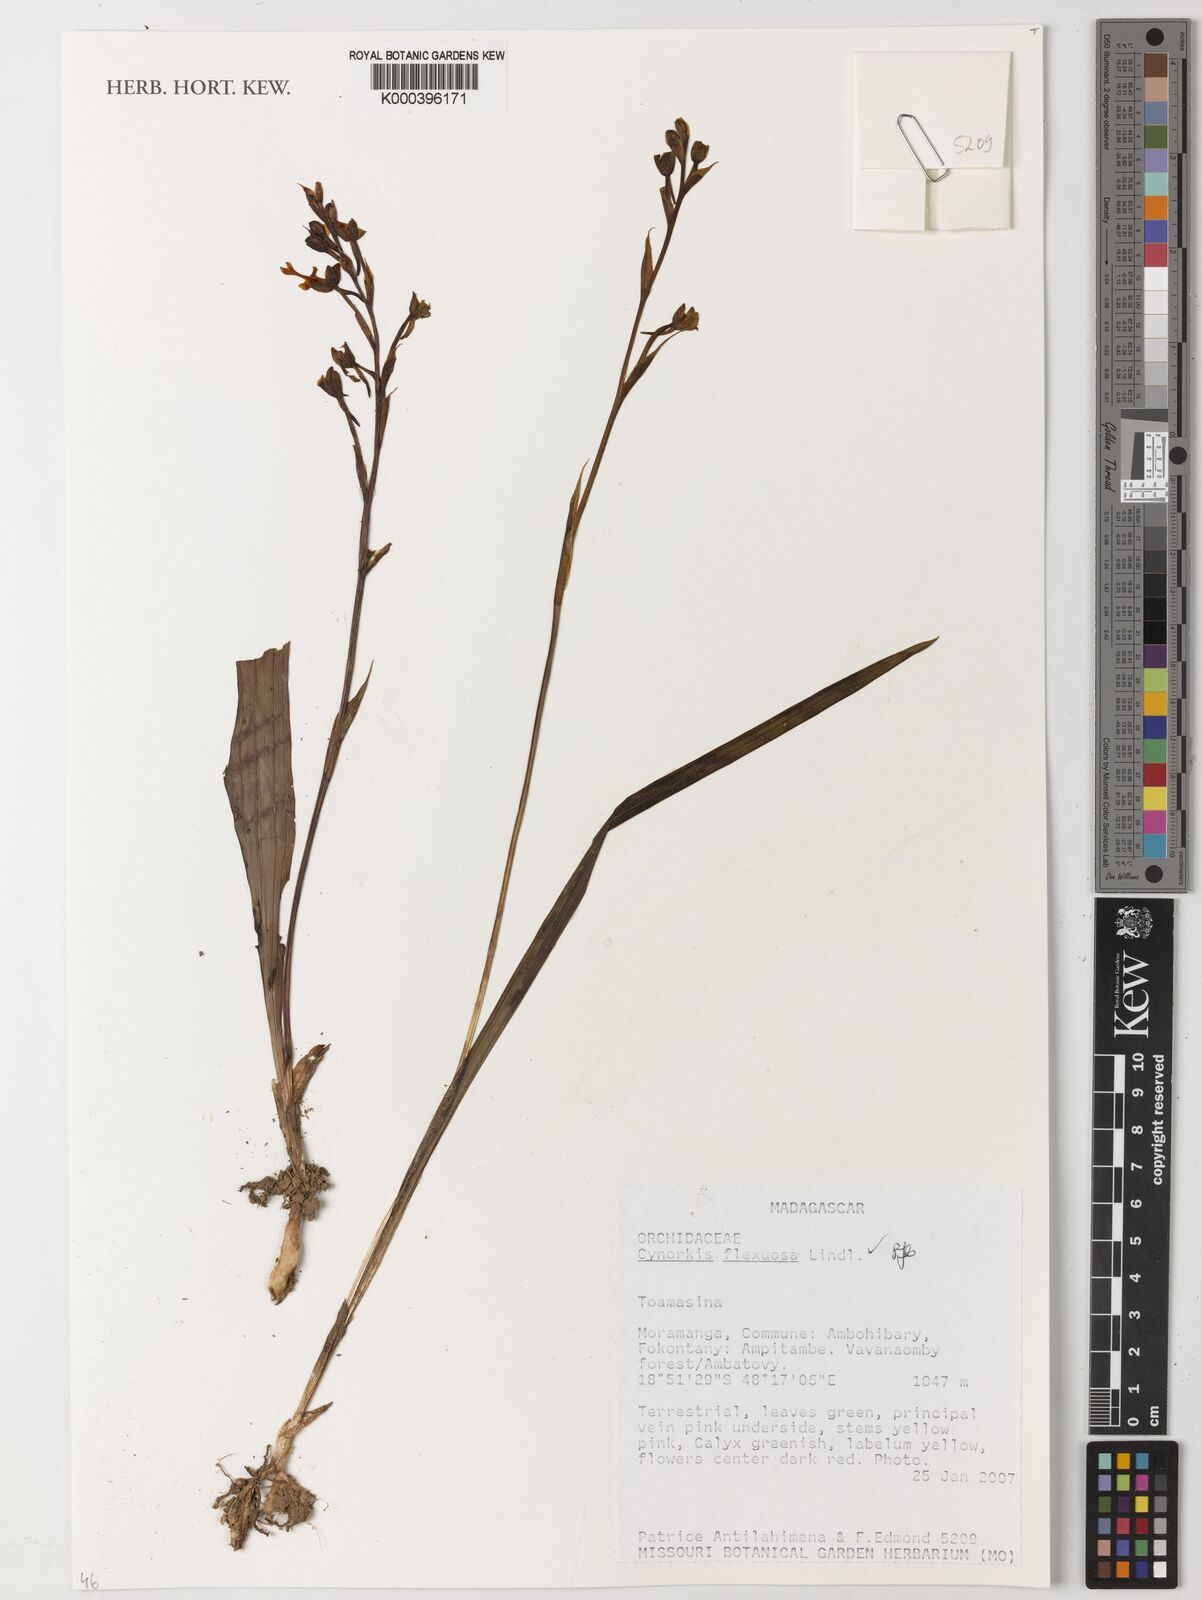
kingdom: Plantae
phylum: Tracheophyta
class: Liliopsida
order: Asparagales
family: Orchidaceae
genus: Cynorkis
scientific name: Cynorkis flexuosa
